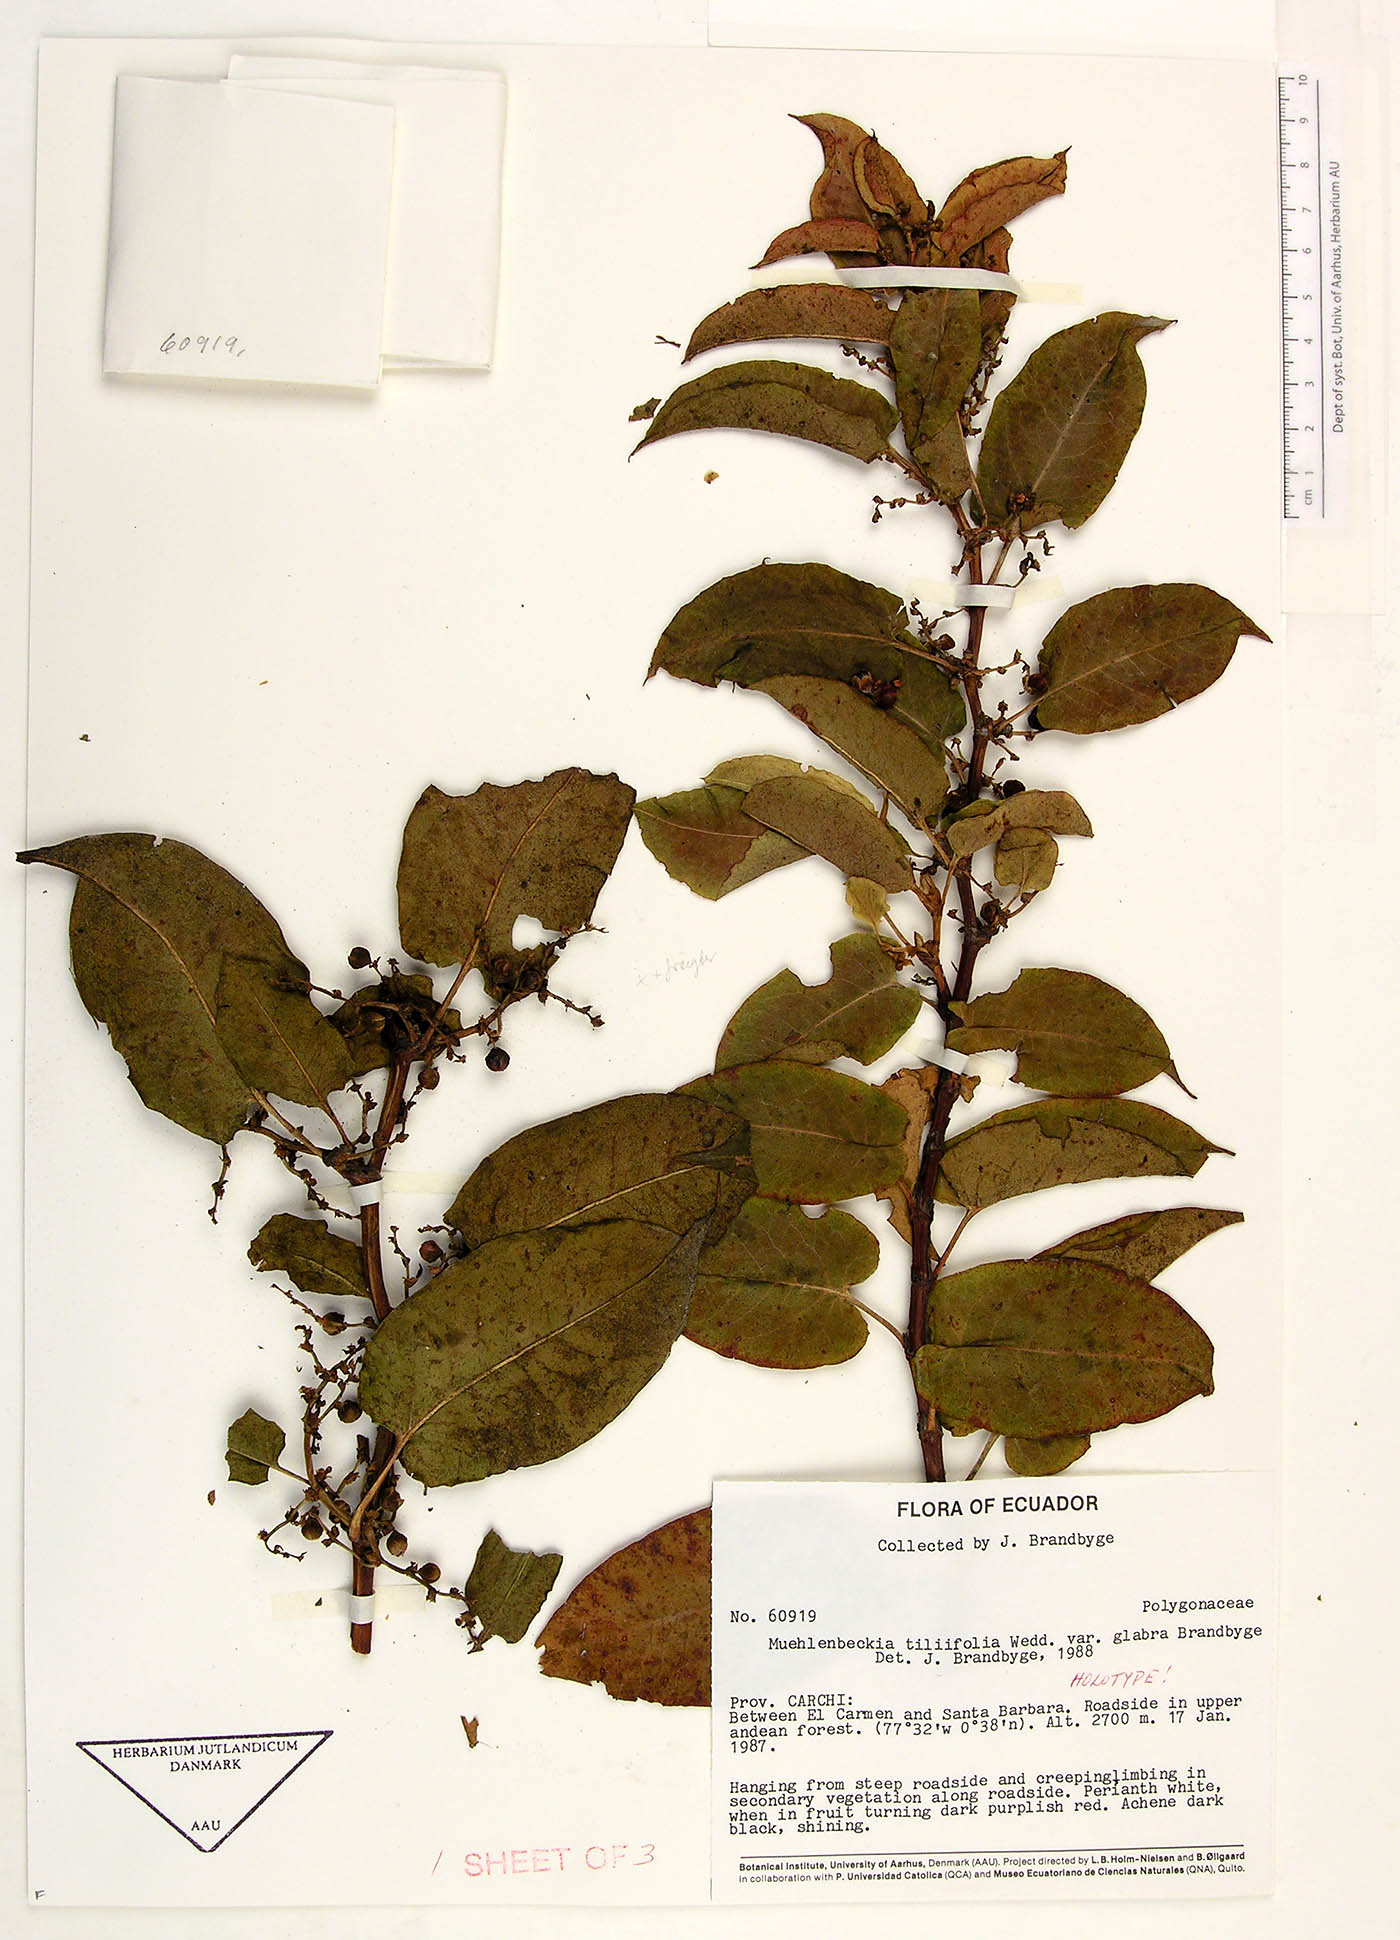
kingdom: Plantae
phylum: Tracheophyta
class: Magnoliopsida
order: Caryophyllales
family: Polygonaceae
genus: Muehlenbeckia
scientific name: Muehlenbeckia tiliifolia
